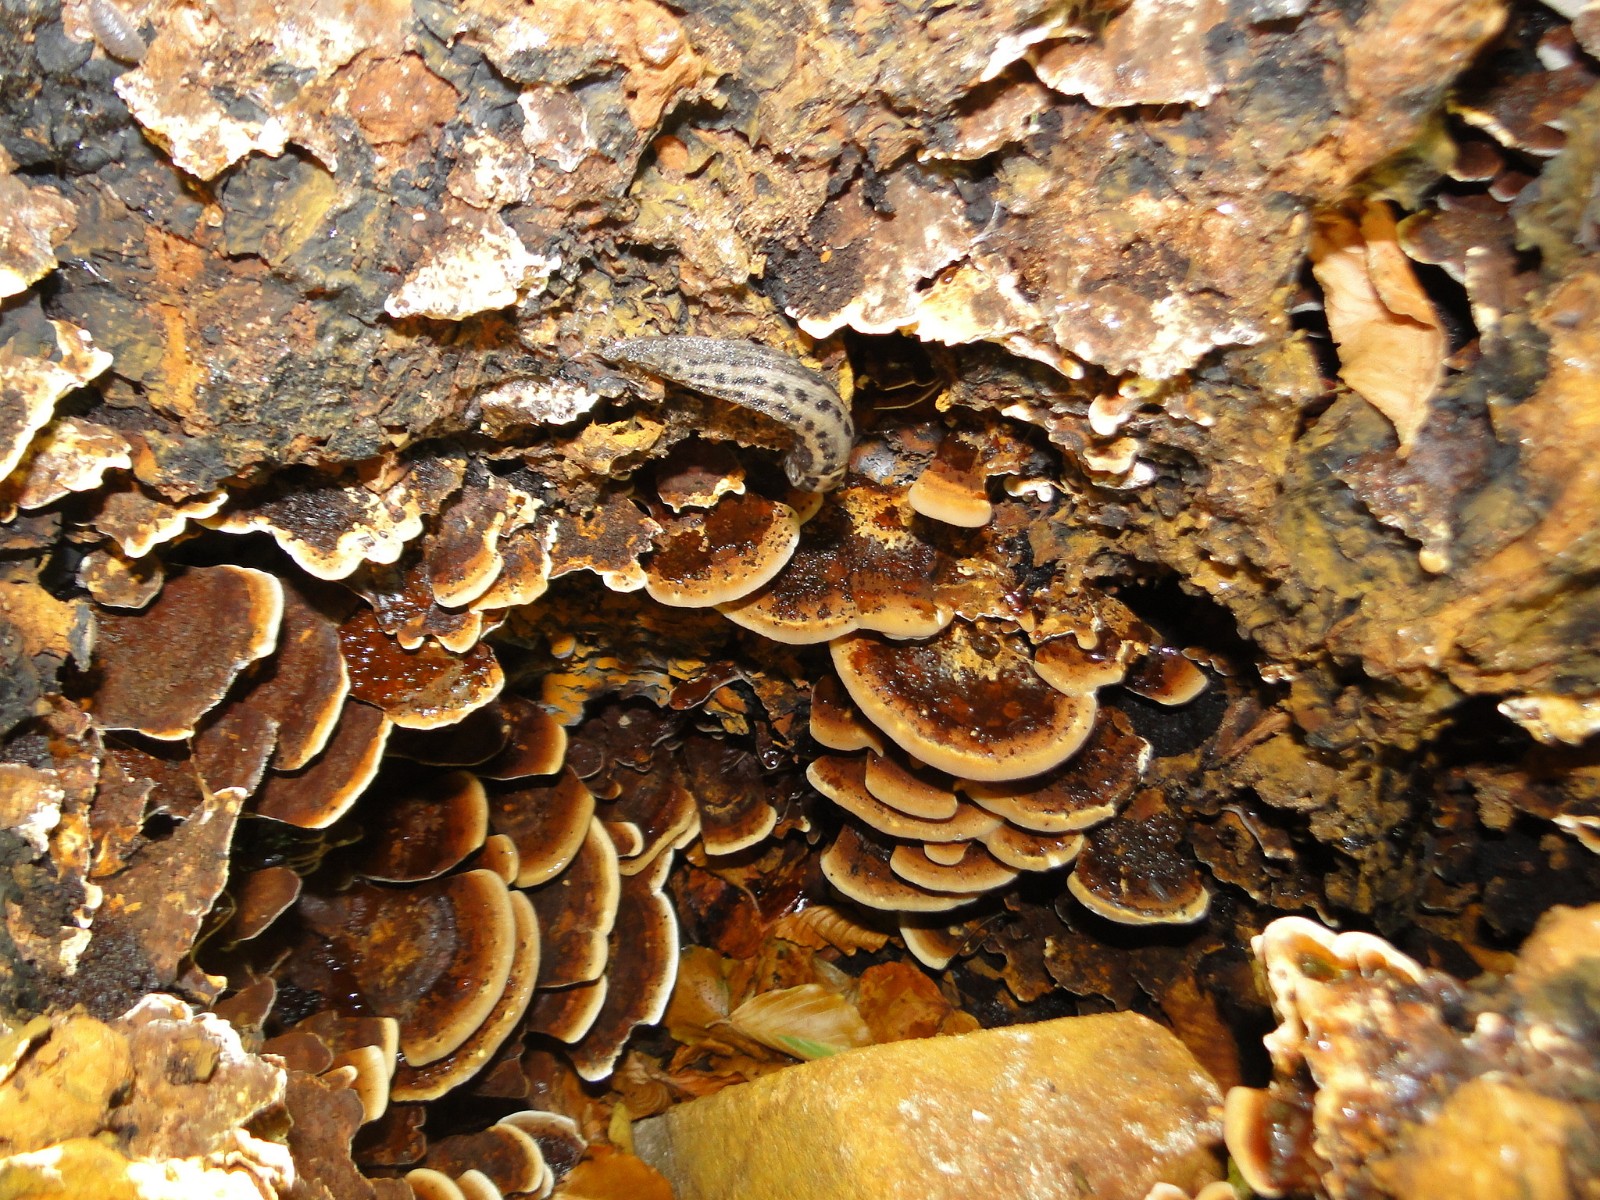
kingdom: Fungi
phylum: Basidiomycota
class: Agaricomycetes
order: Hymenochaetales
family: Hymenochaetaceae
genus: Inonotus
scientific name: Inonotus cuticularis
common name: kroghåret spejlporesvamp
